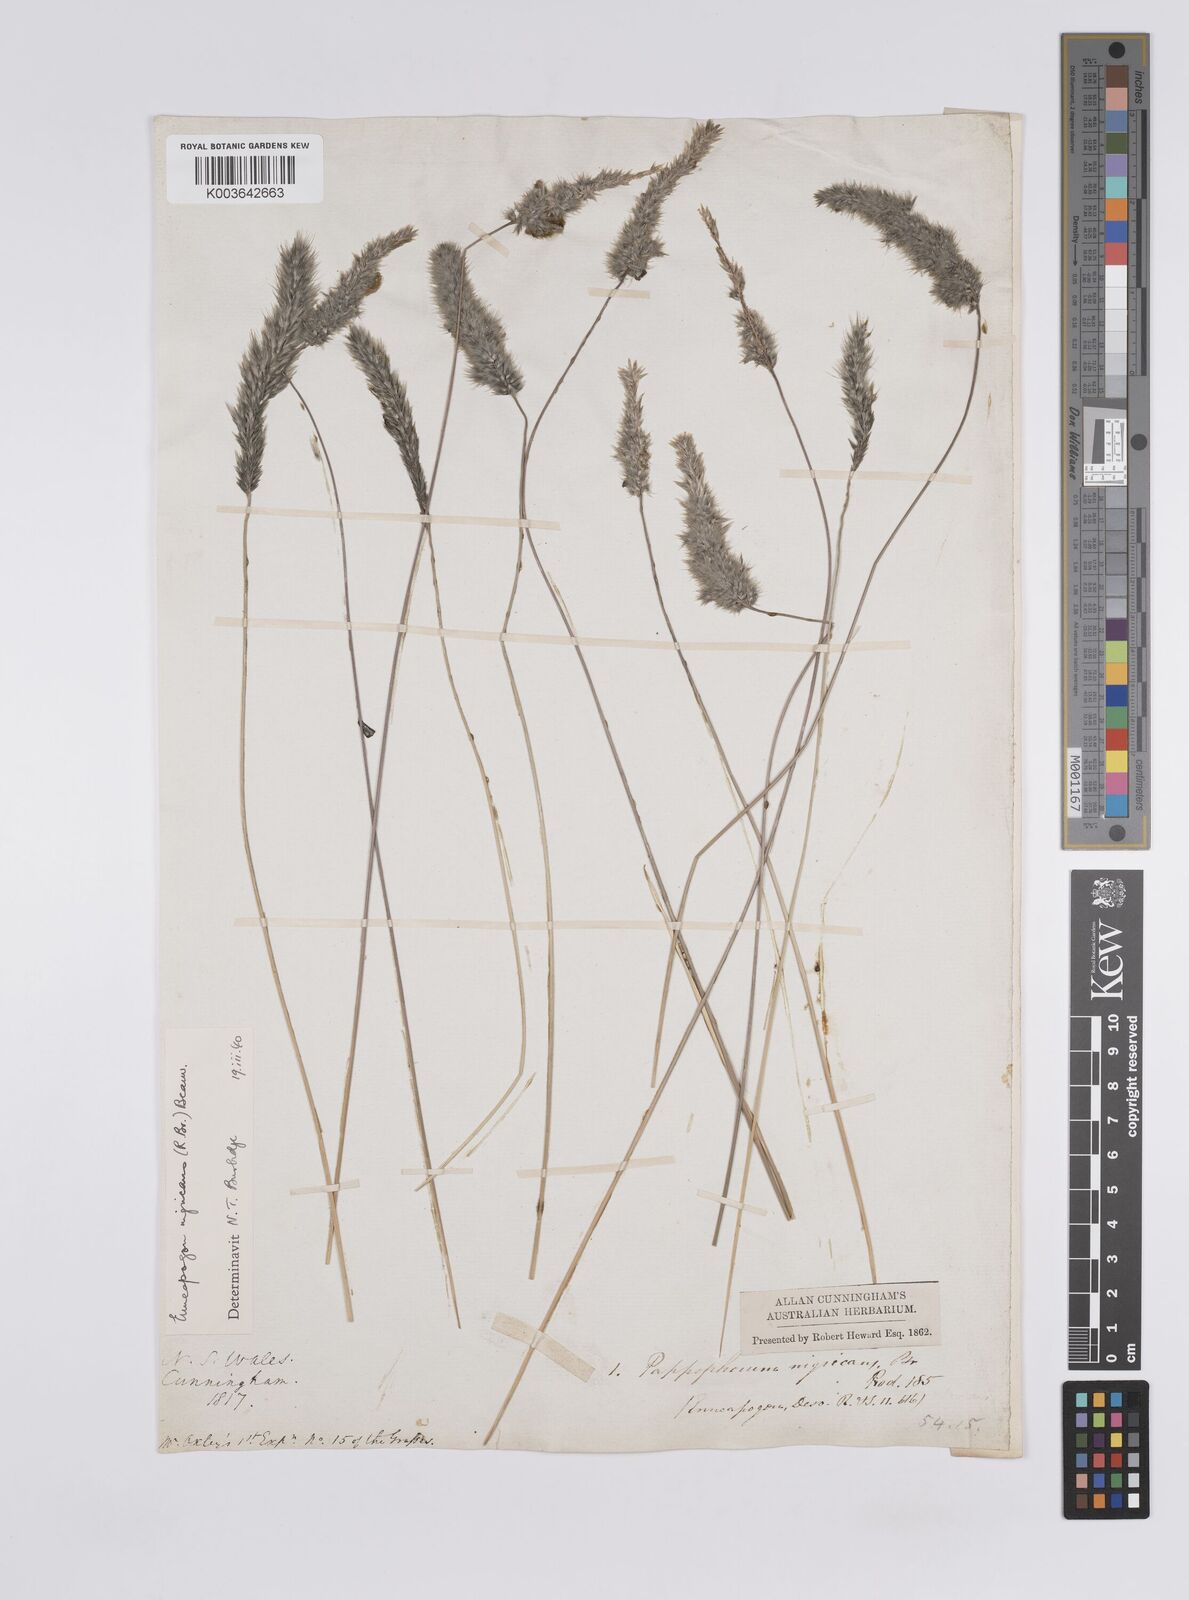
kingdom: Plantae
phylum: Tracheophyta
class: Liliopsida
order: Poales
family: Poaceae
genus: Enneapogon
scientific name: Enneapogon nigricans
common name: Pappus grass
